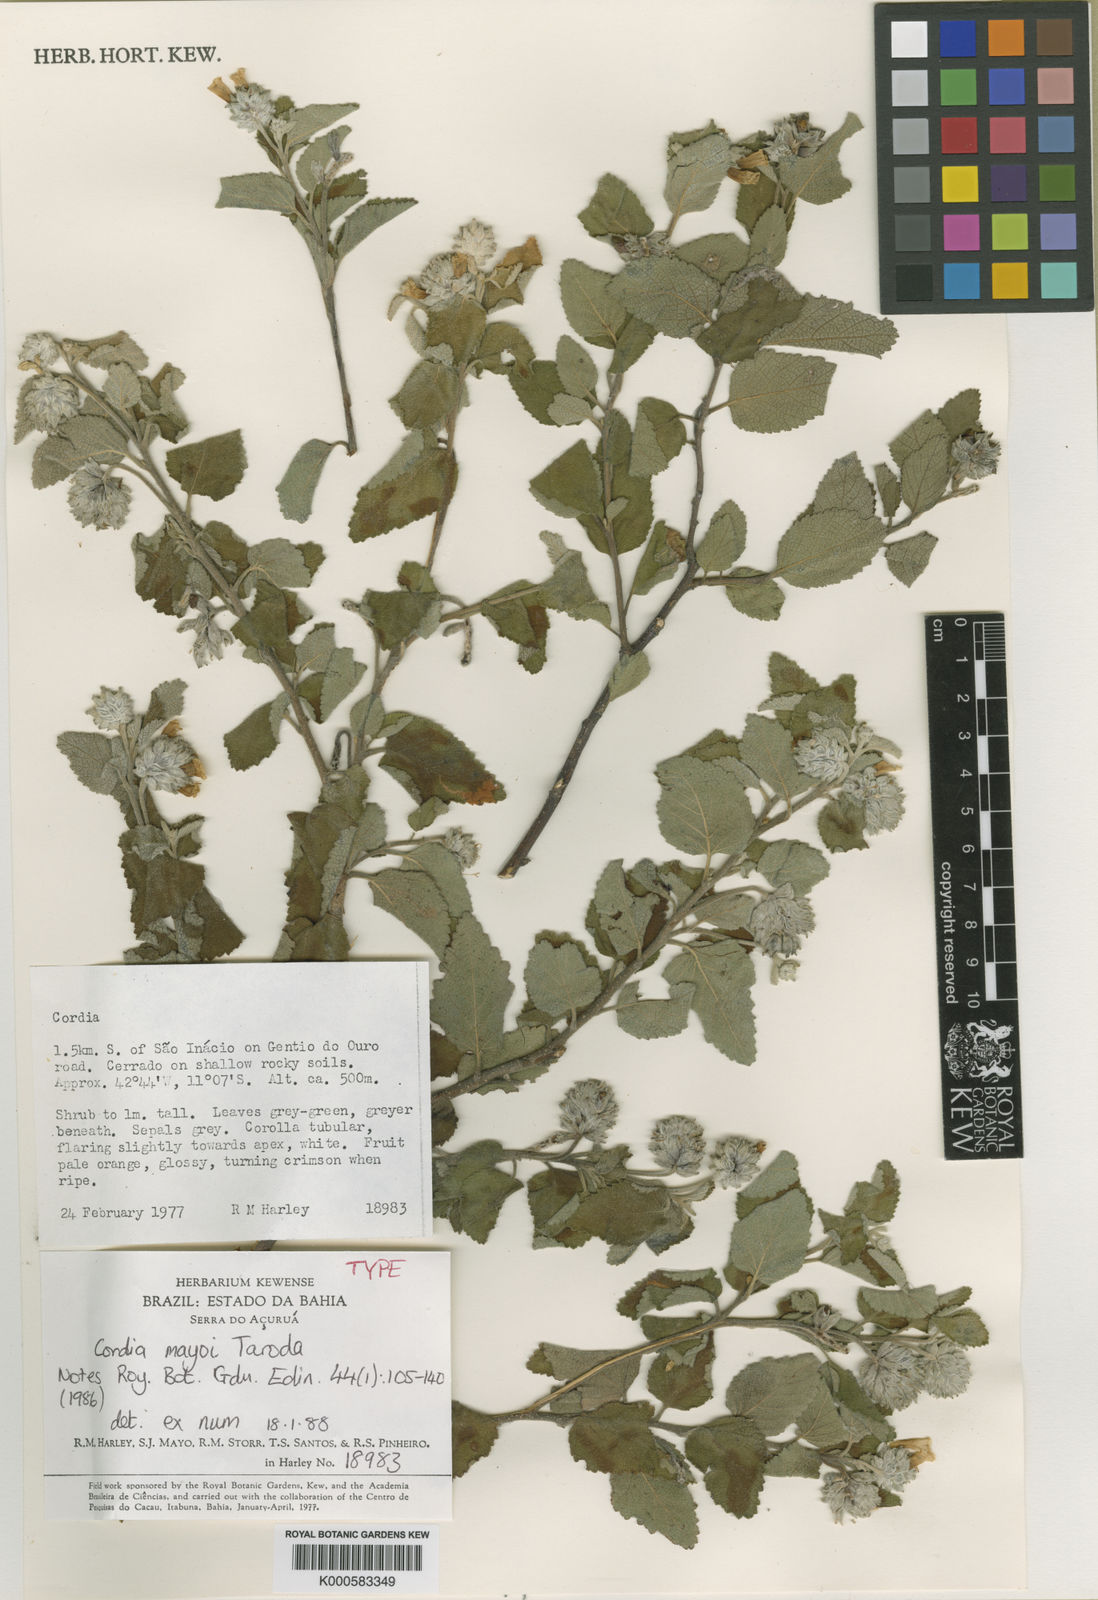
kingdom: Plantae
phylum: Tracheophyta
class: Magnoliopsida
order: Boraginales
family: Cordiaceae
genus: Cordia
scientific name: Cordia myxa
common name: Assyrian plum
